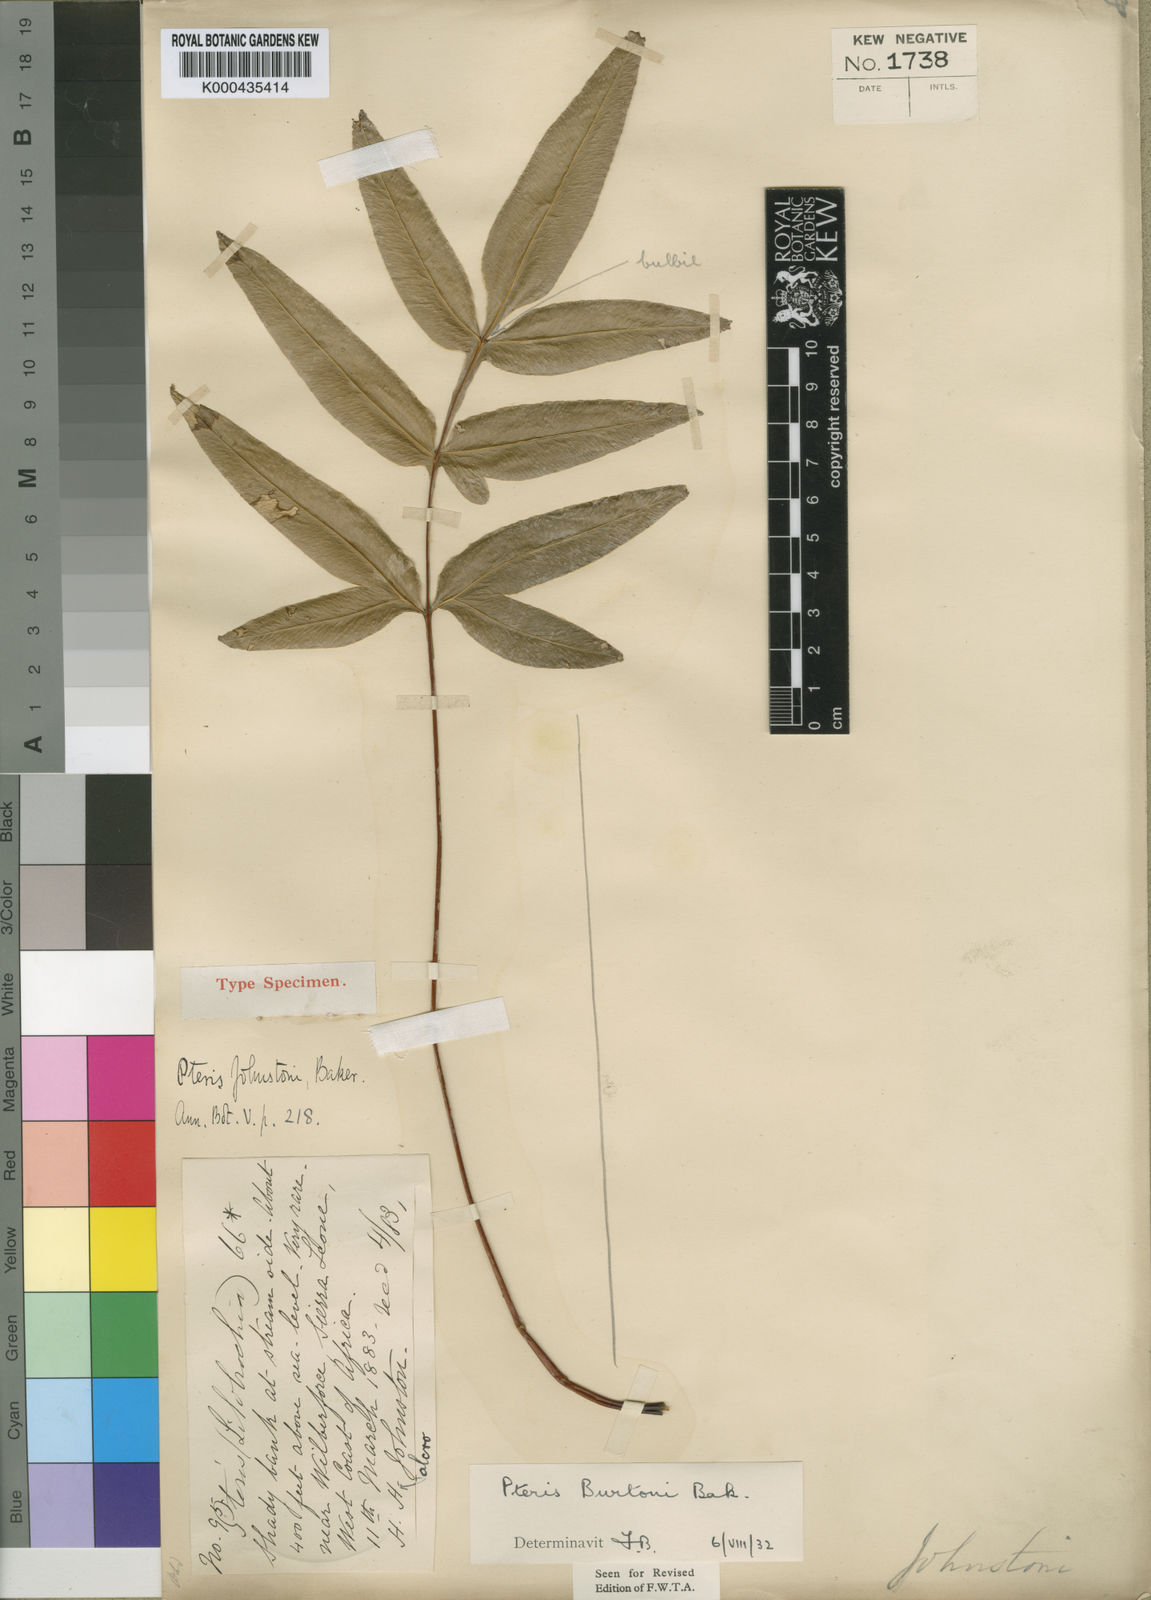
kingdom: Plantae
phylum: Tracheophyta
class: Polypodiopsida
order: Polypodiales
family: Pteridaceae
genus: Pteris
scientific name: Pteris burtonii
